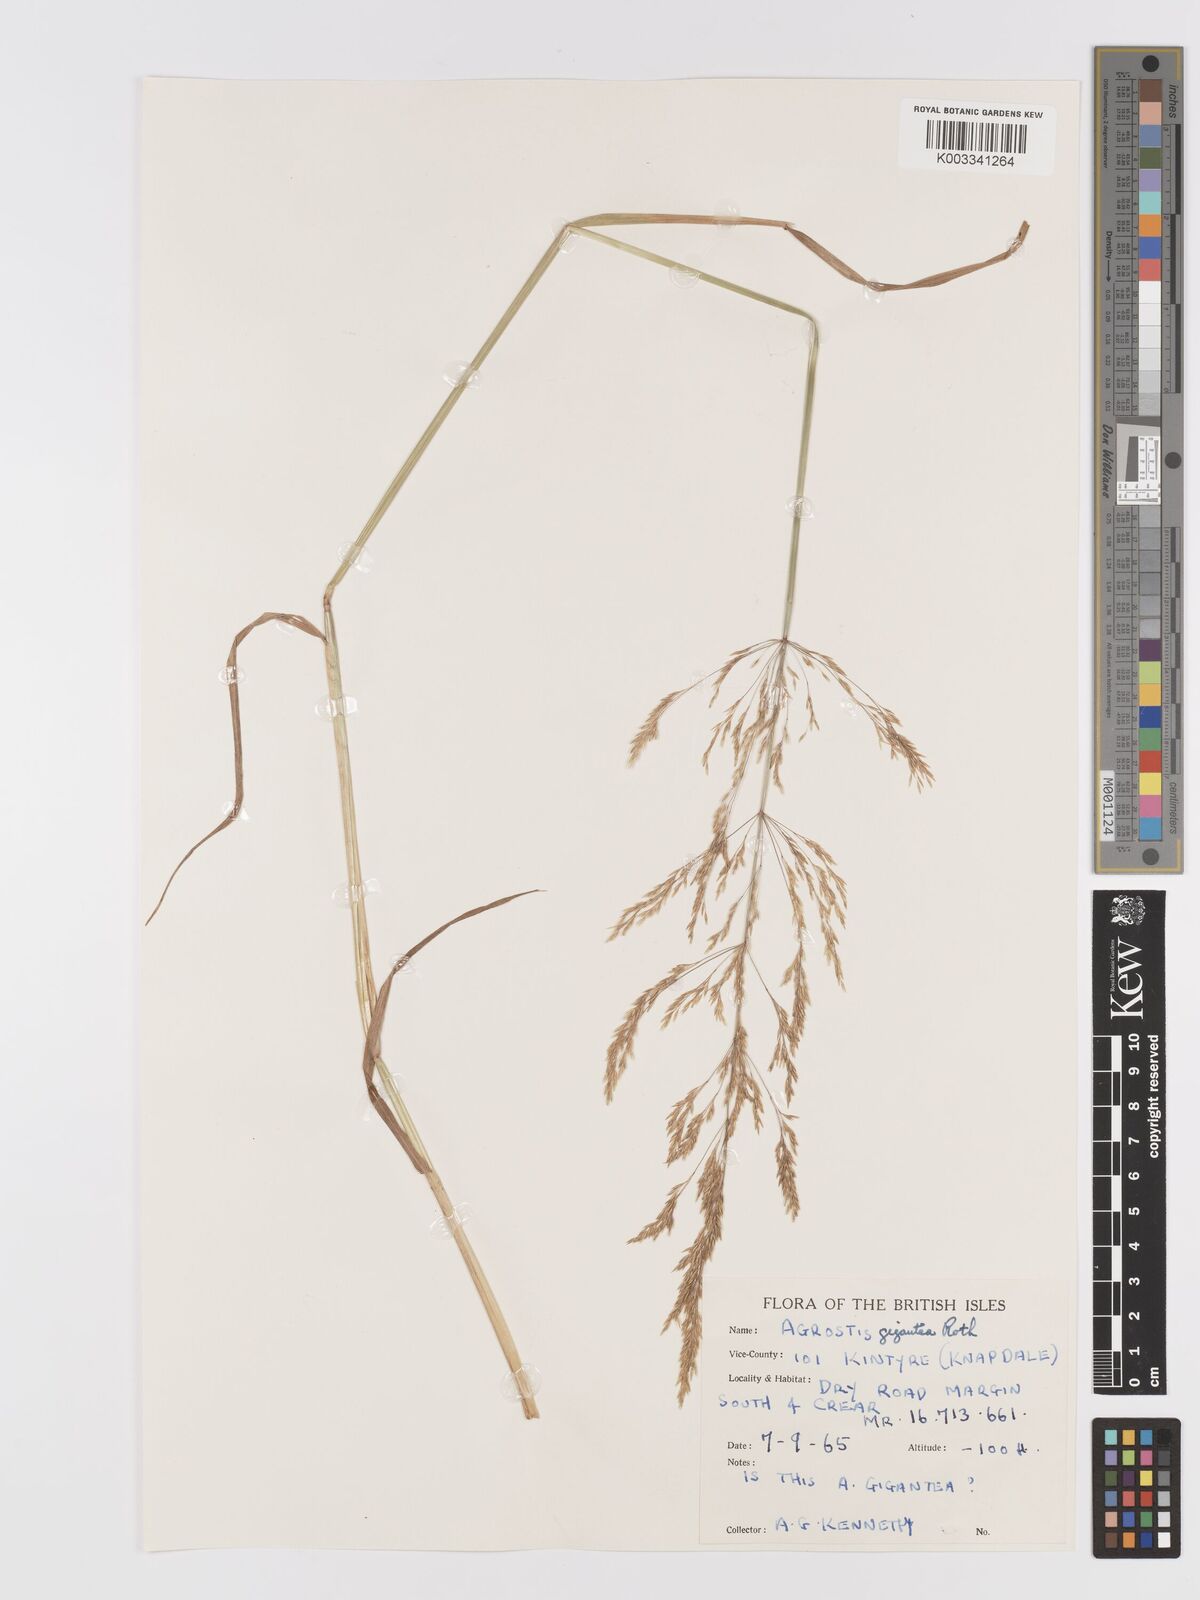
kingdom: Plantae
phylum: Tracheophyta
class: Liliopsida
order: Poales
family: Poaceae
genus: Agrostis
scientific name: Agrostis gigantea
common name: Black bent
